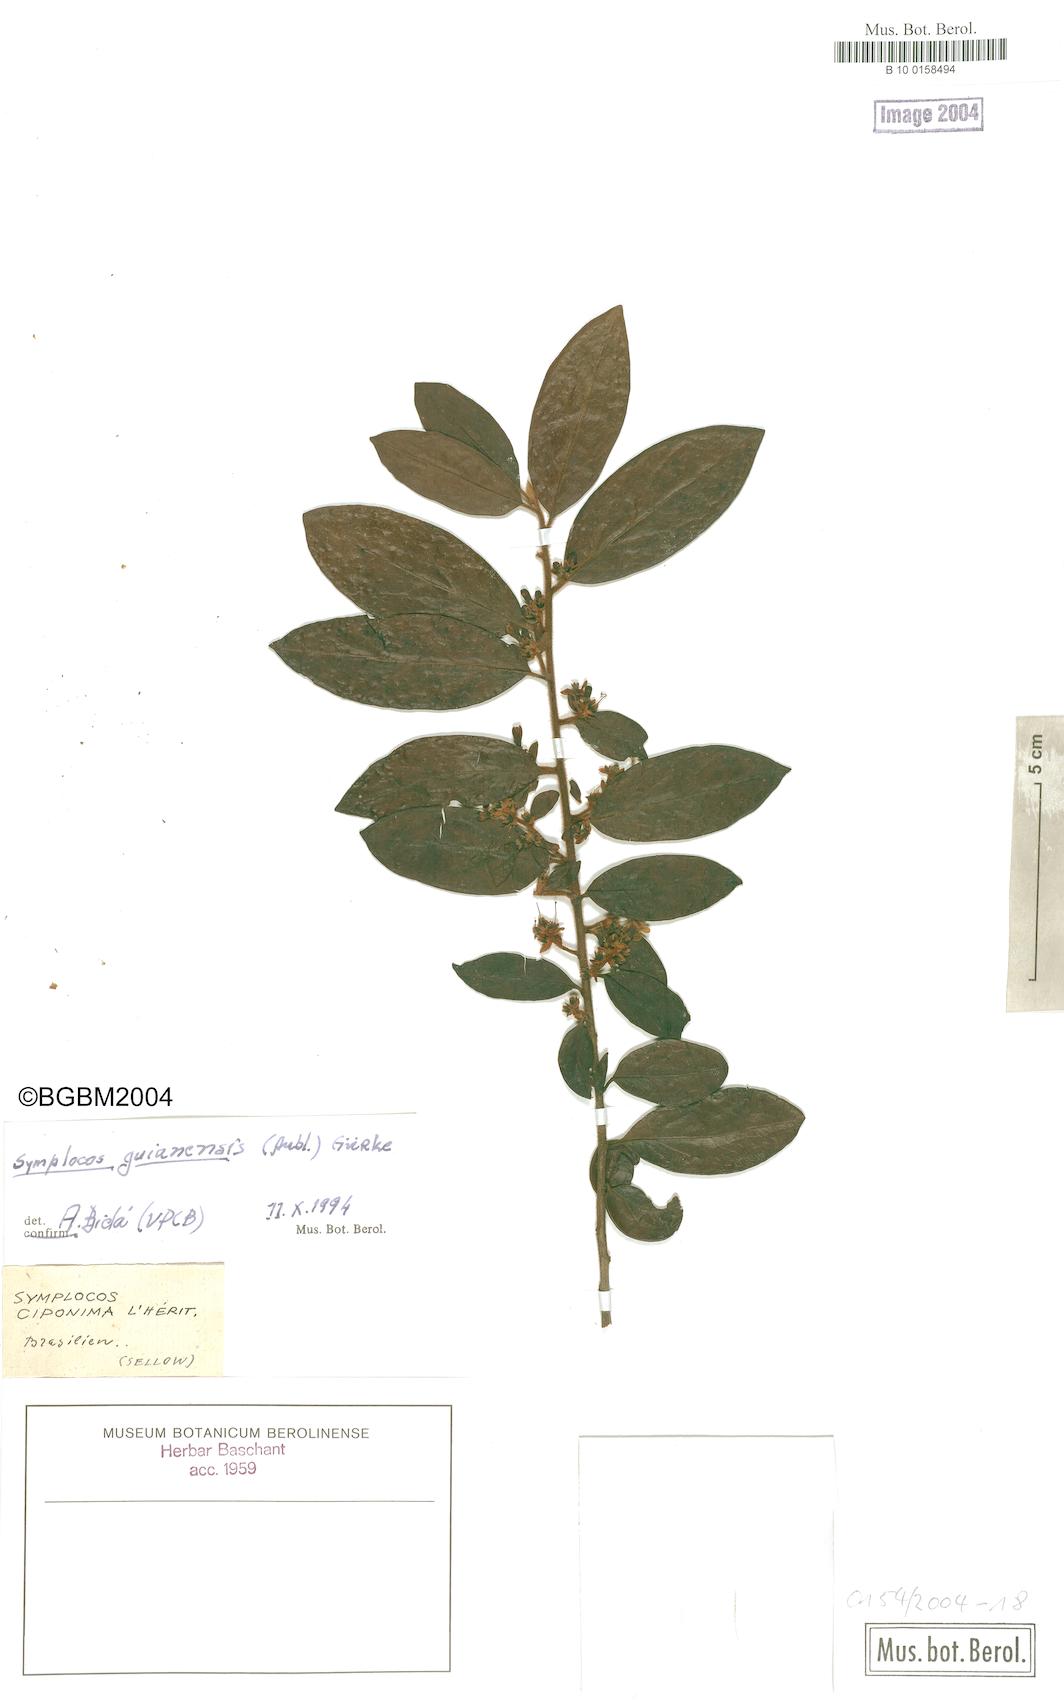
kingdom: Plantae
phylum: Tracheophyta
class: Magnoliopsida
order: Ericales
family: Symplocaceae
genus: Symplocos
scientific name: Symplocos guianensis
